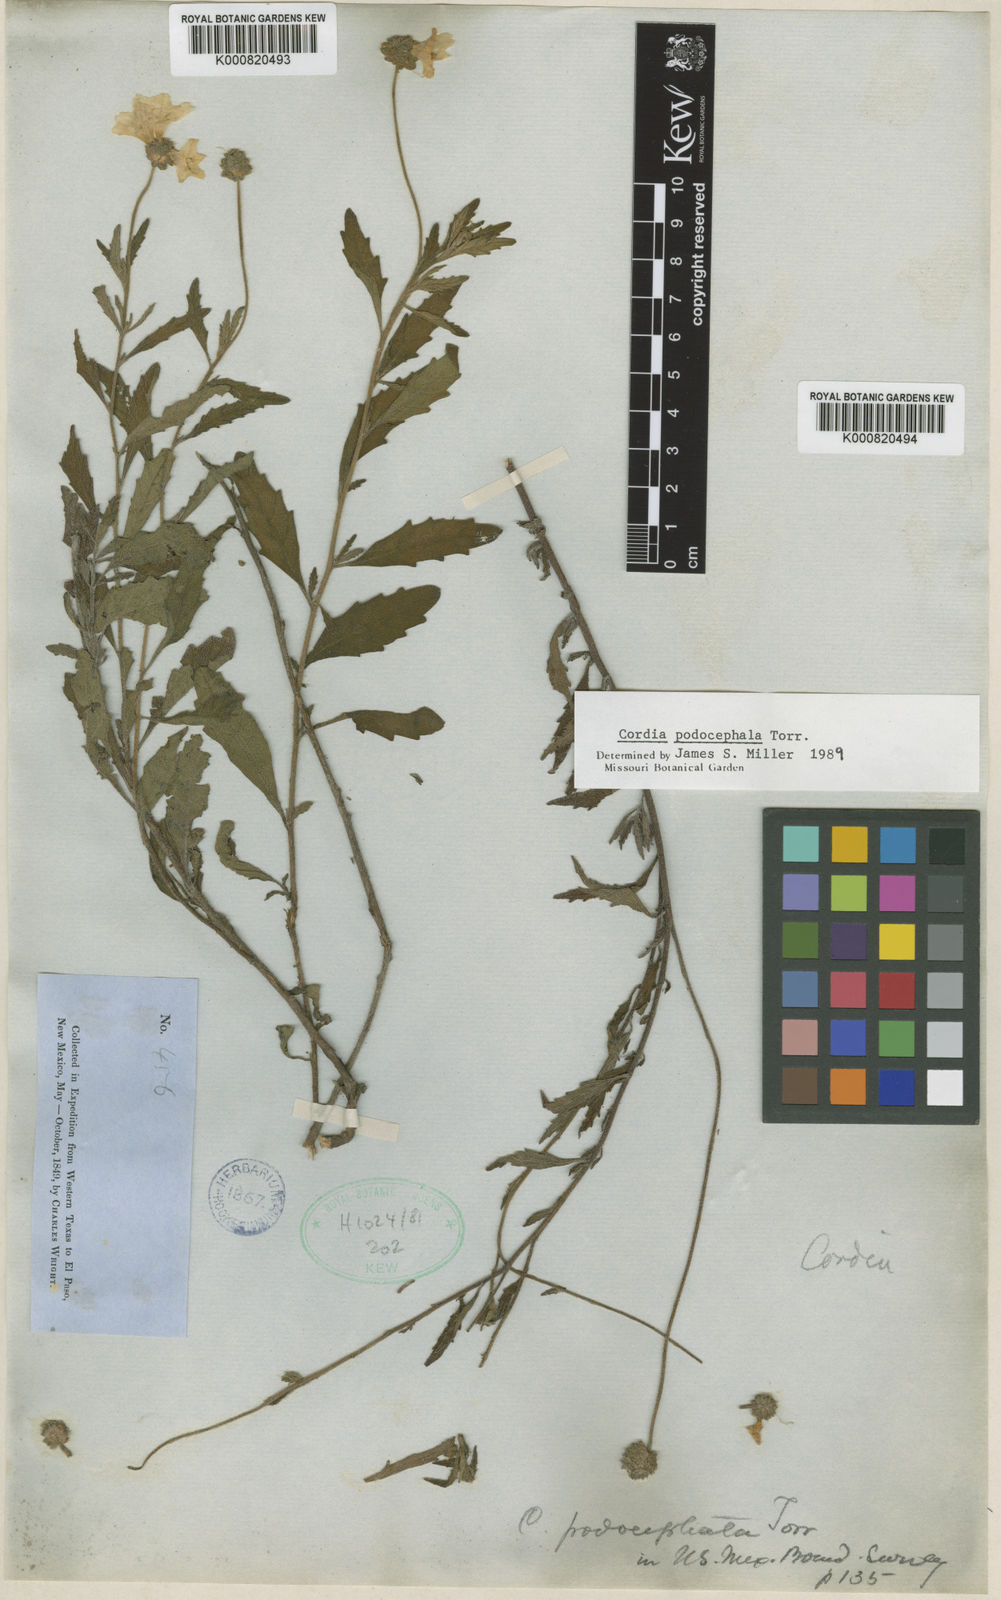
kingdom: Plantae
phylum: Tracheophyta
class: Magnoliopsida
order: Boraginales
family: Cordiaceae
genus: Varronia
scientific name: Varronia podocephala
